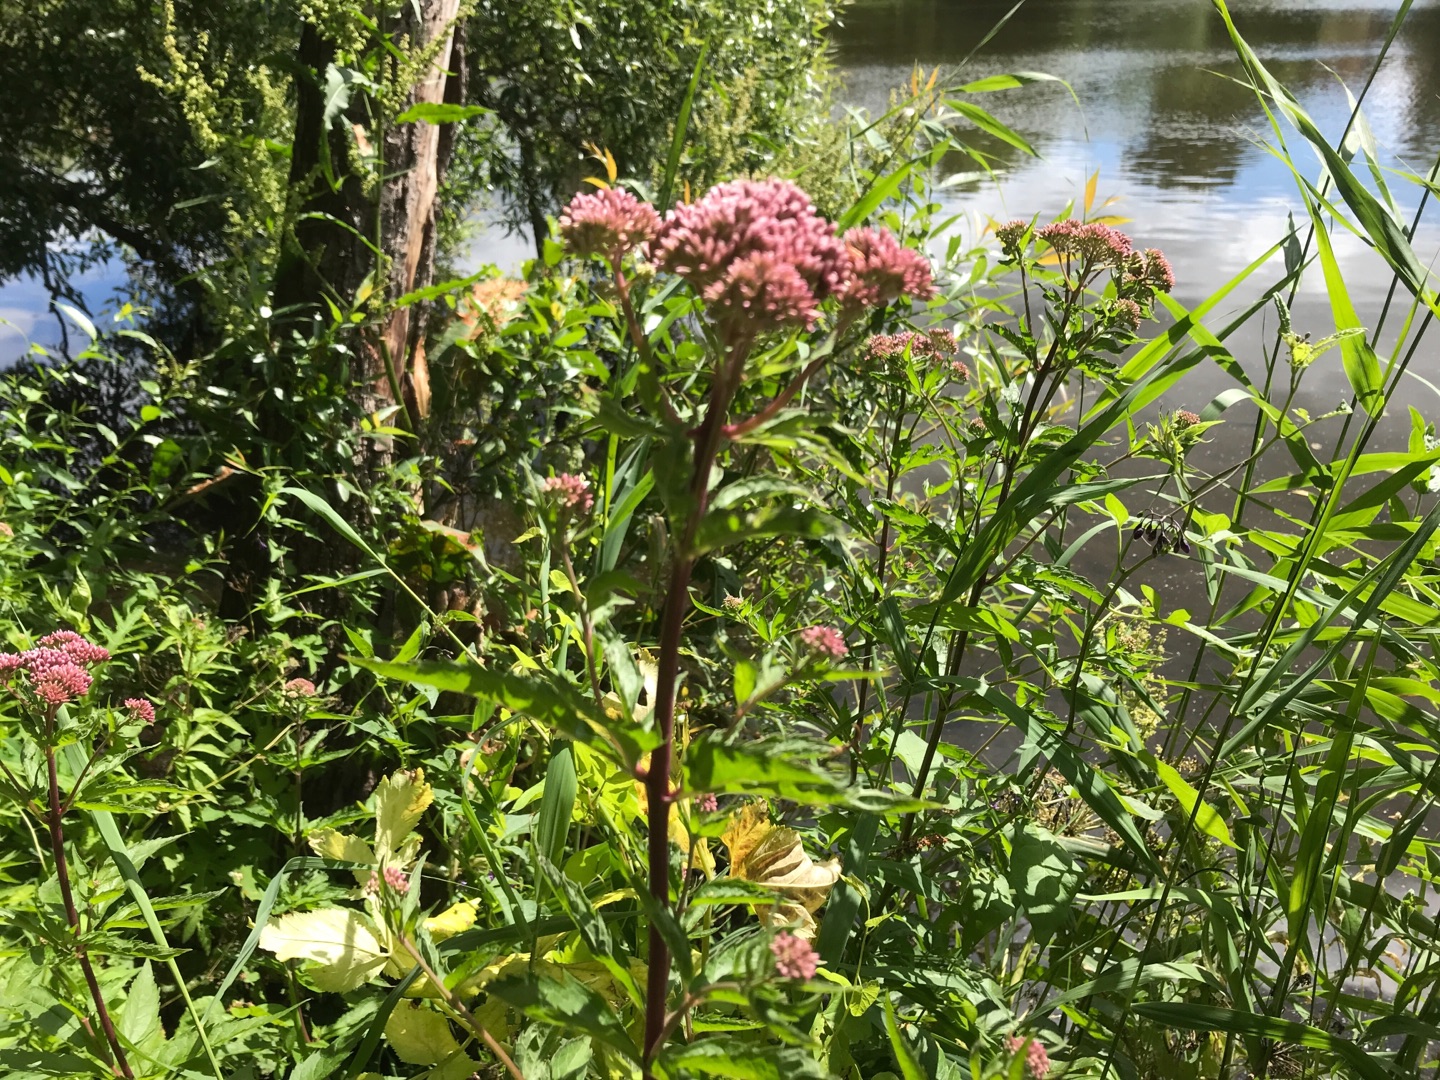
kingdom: Plantae
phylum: Tracheophyta
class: Magnoliopsida
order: Asterales
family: Asteraceae
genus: Eupatorium
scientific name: Eupatorium cannabinum
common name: Hjortetrøst
